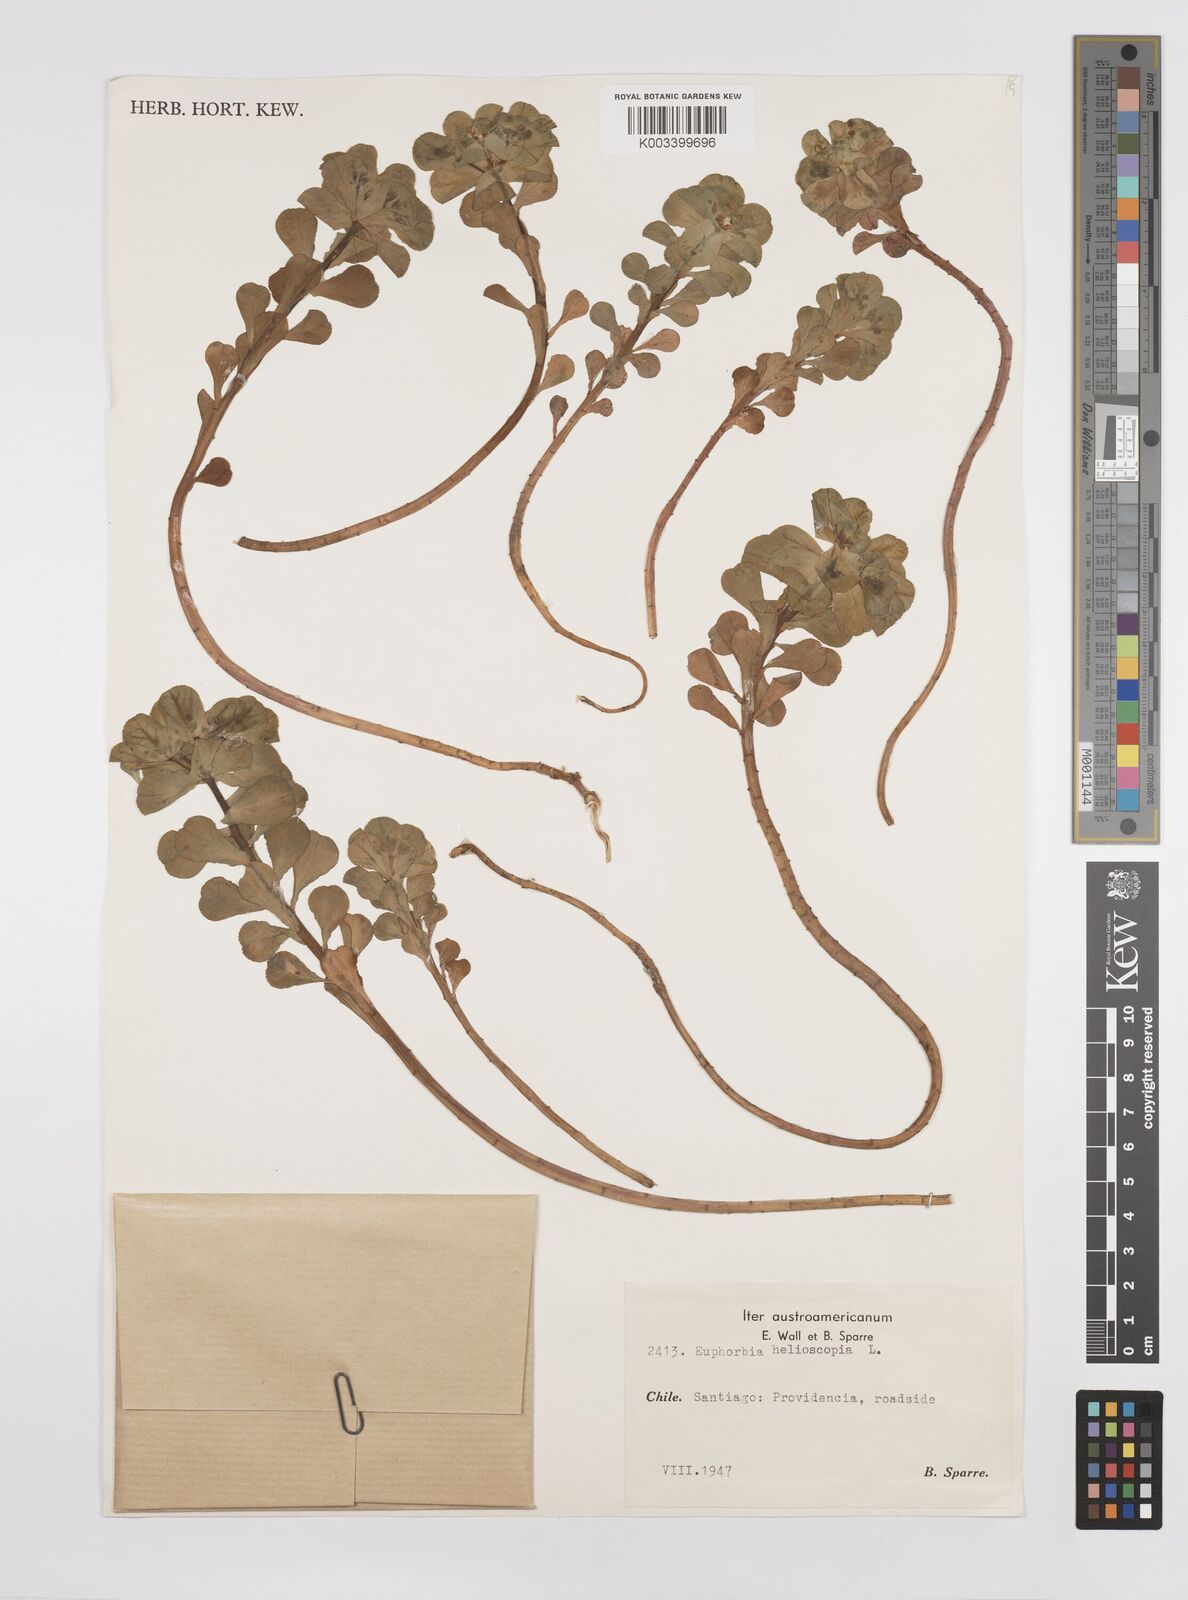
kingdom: Plantae
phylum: Tracheophyta
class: Magnoliopsida
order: Malpighiales
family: Euphorbiaceae
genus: Euphorbia
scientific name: Euphorbia helioscopia
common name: Sun spurge
